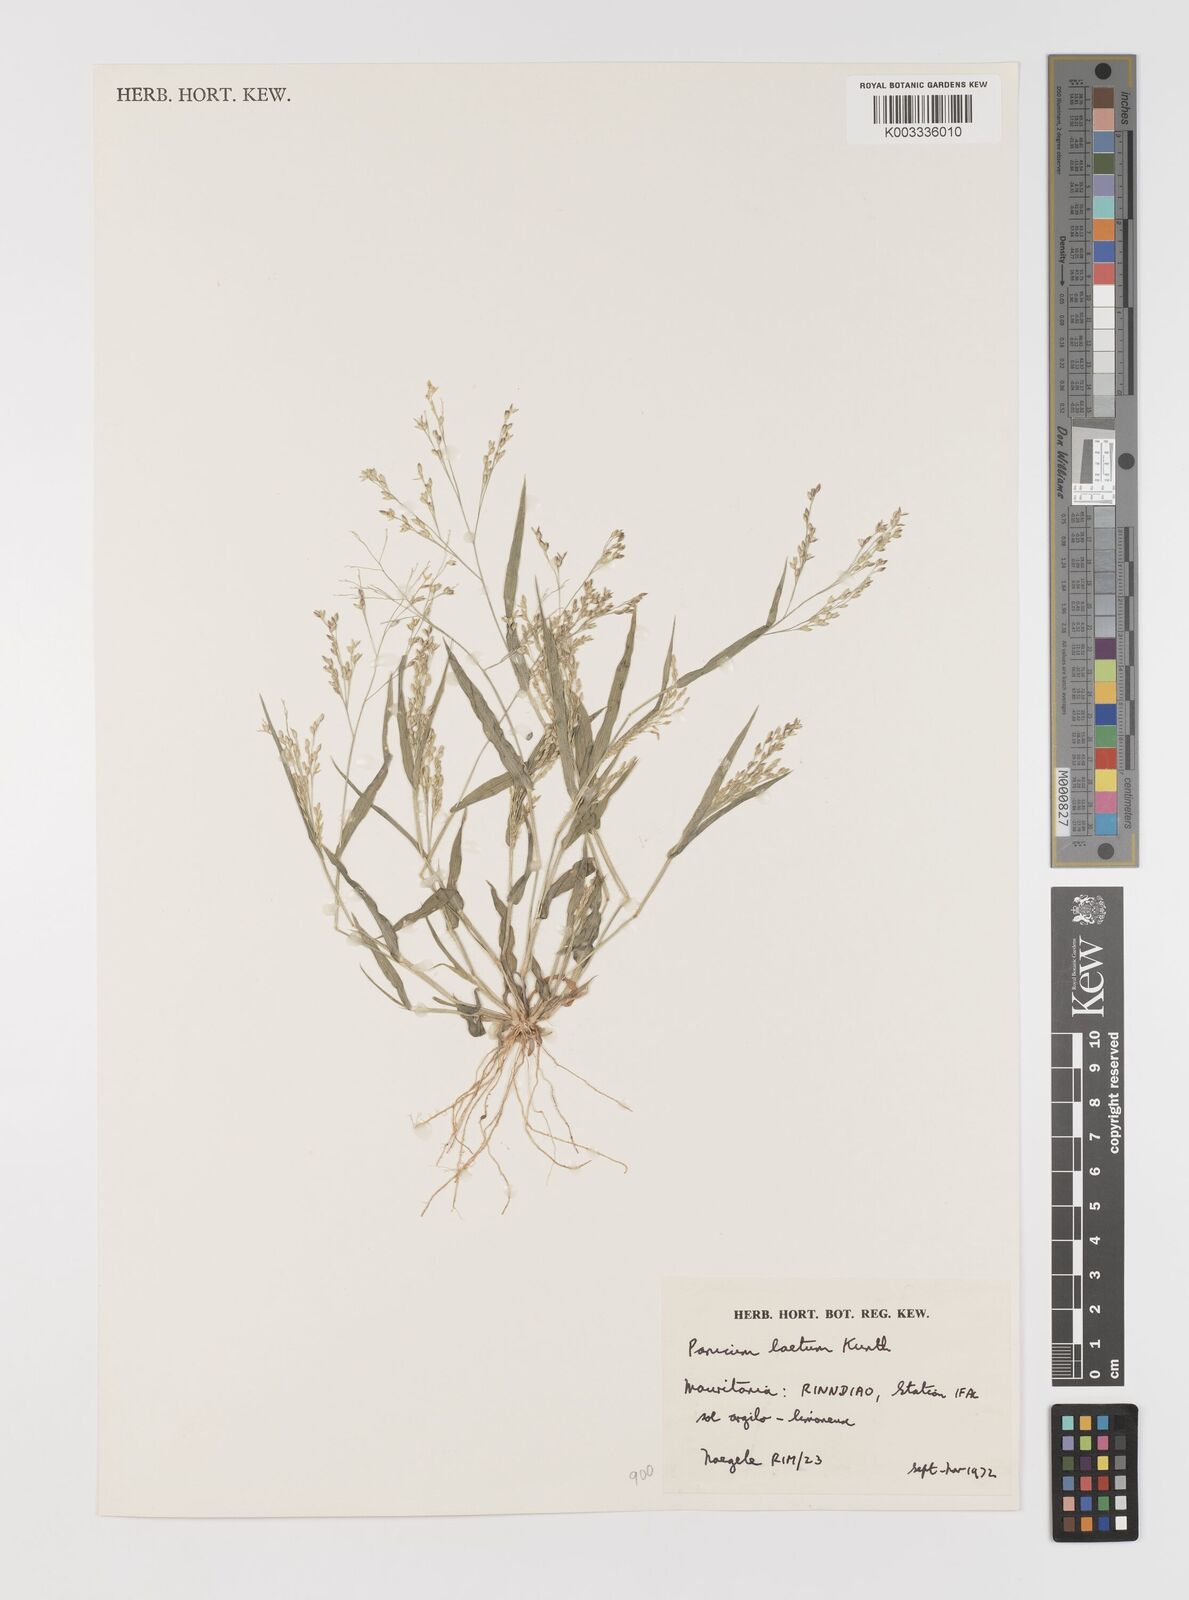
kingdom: Plantae
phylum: Tracheophyta
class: Liliopsida
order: Poales
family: Poaceae
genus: Panicum
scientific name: Panicum laetum
